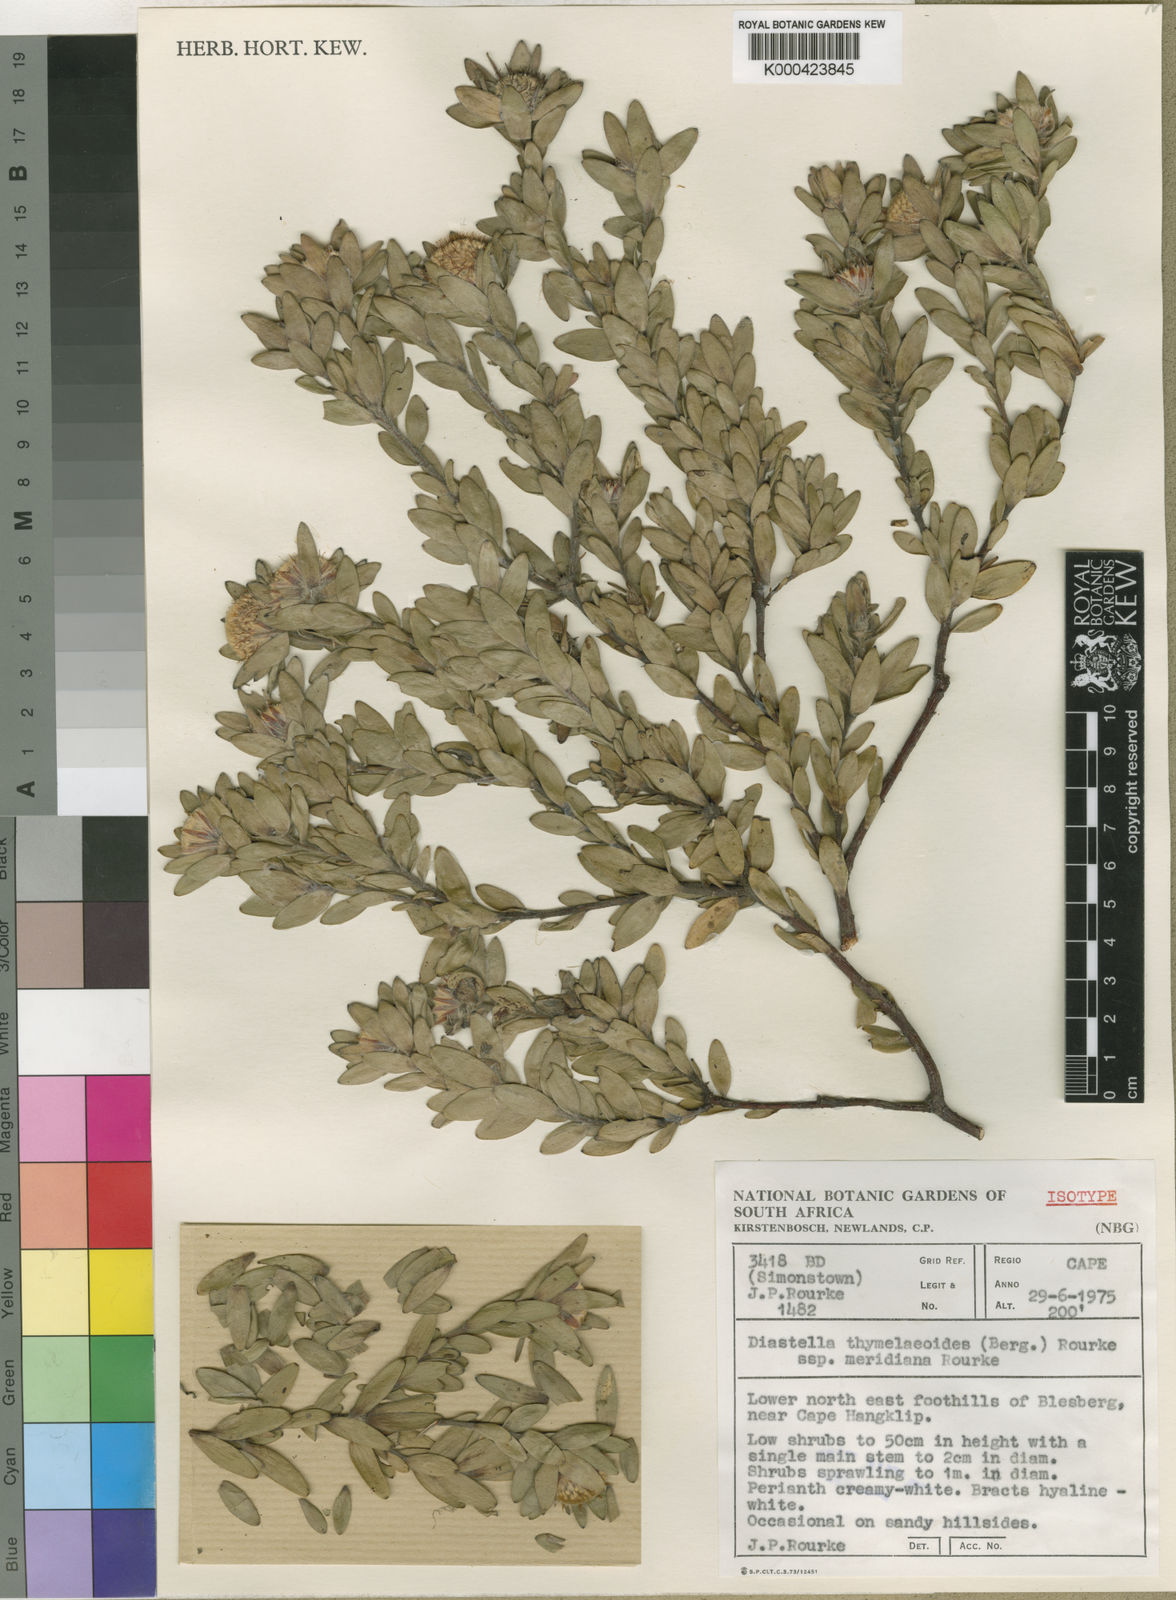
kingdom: Plantae
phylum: Tracheophyta
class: Magnoliopsida
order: Proteales
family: Proteaceae
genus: Diastella
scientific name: Diastella thymelaeoides
